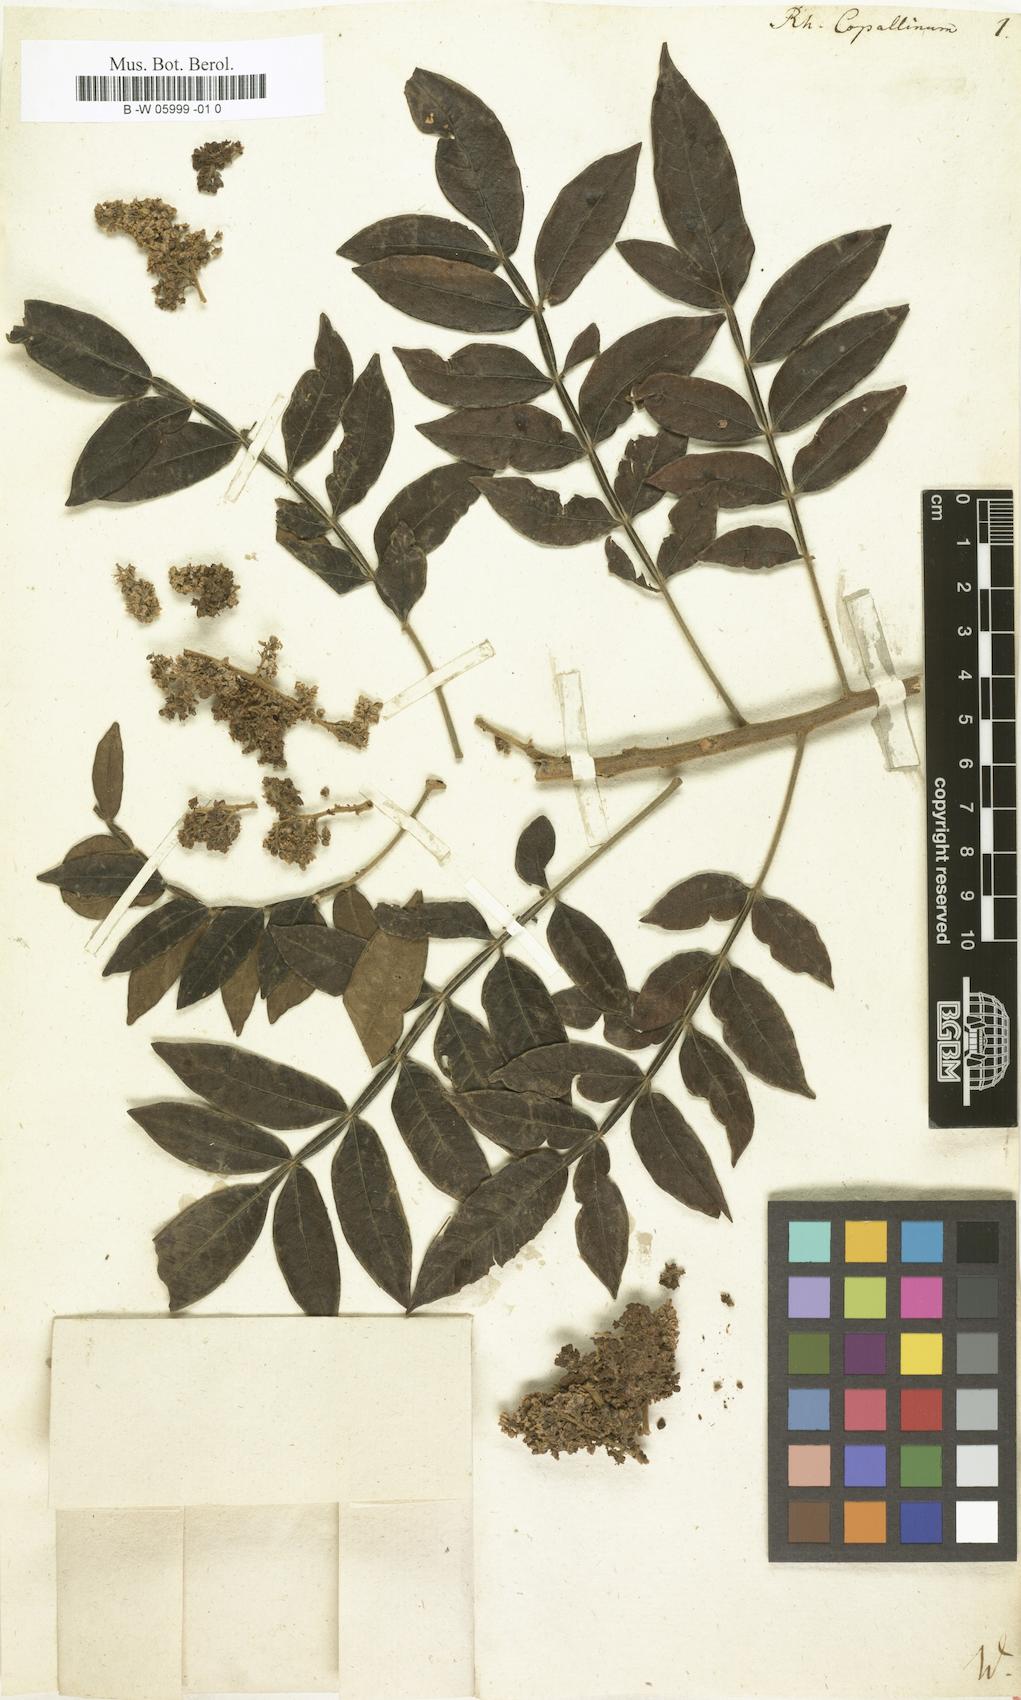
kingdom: Plantae
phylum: Tracheophyta
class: Magnoliopsida
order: Sapindales
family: Anacardiaceae
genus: Rhus
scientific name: Rhus copallina
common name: Shining sumac
